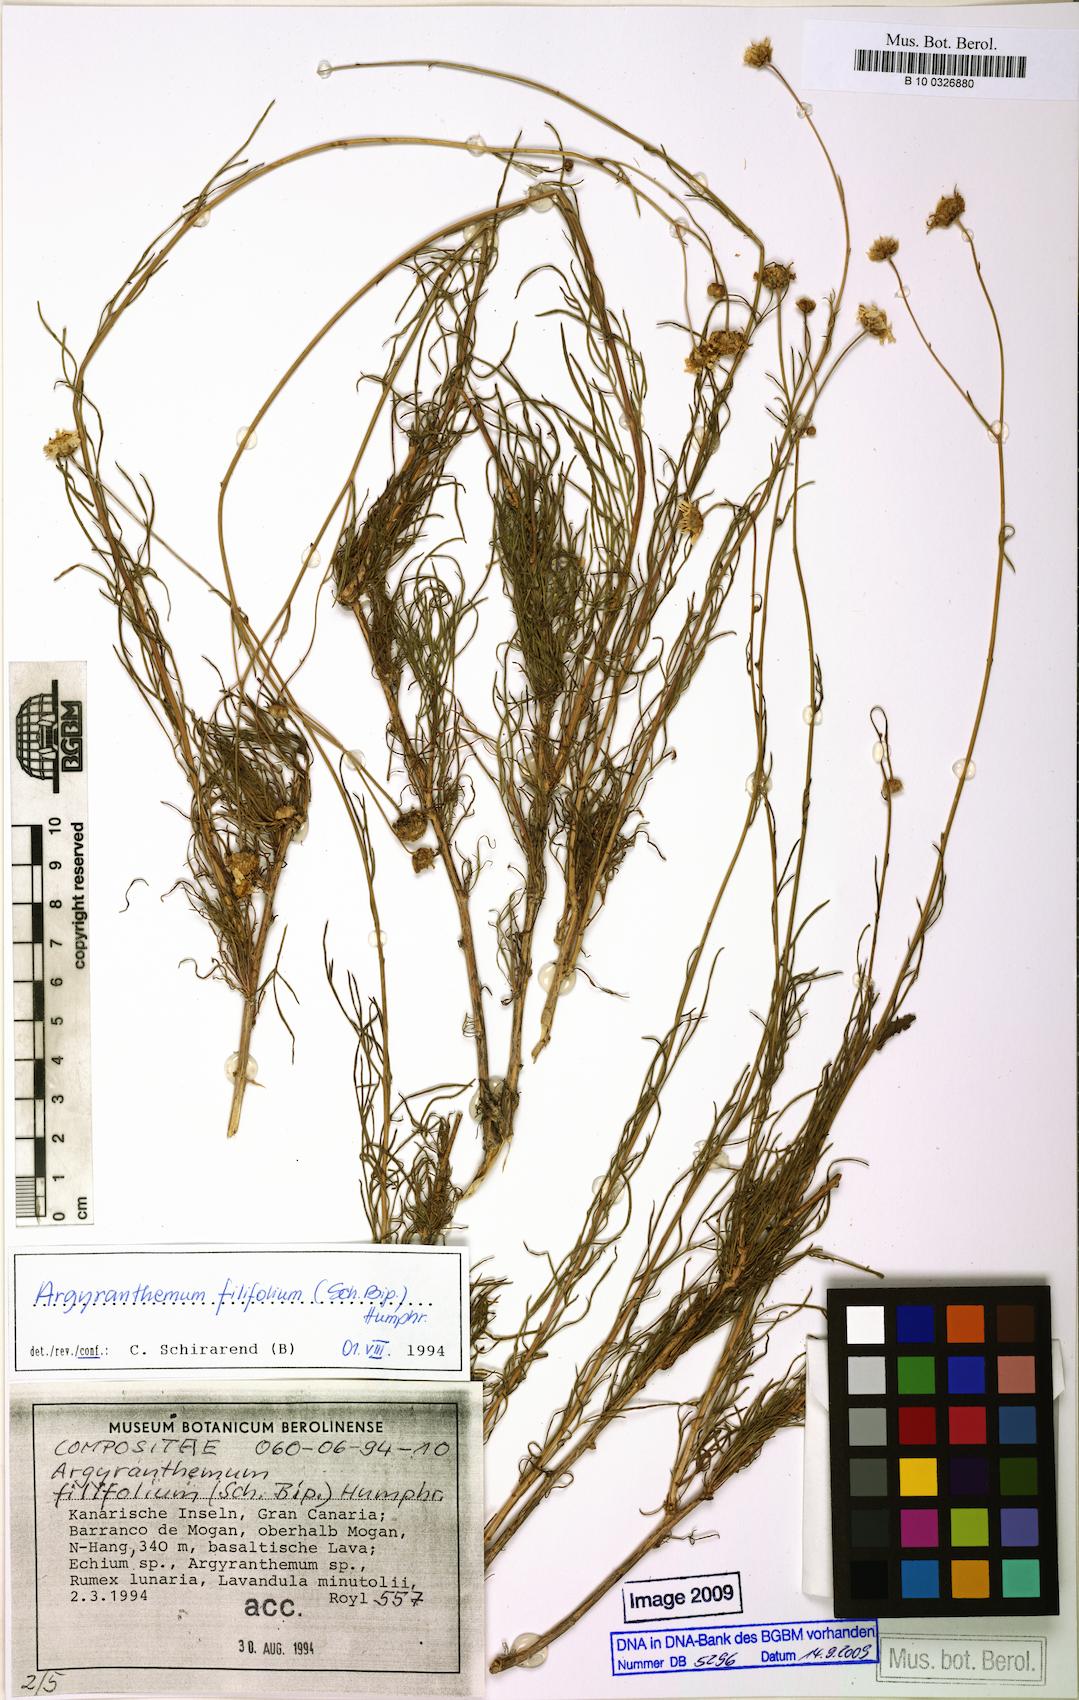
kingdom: Plantae
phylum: Tracheophyta
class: Magnoliopsida
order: Asterales
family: Asteraceae
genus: Argyranthemum
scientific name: Argyranthemum filifolium
